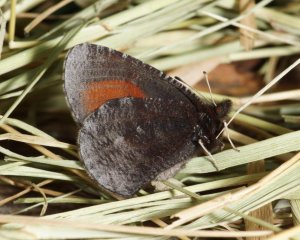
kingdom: Animalia
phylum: Arthropoda
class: Insecta
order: Lepidoptera
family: Nymphalidae
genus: Erebia
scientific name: Erebia discoidalis
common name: Red-disked Alpine
